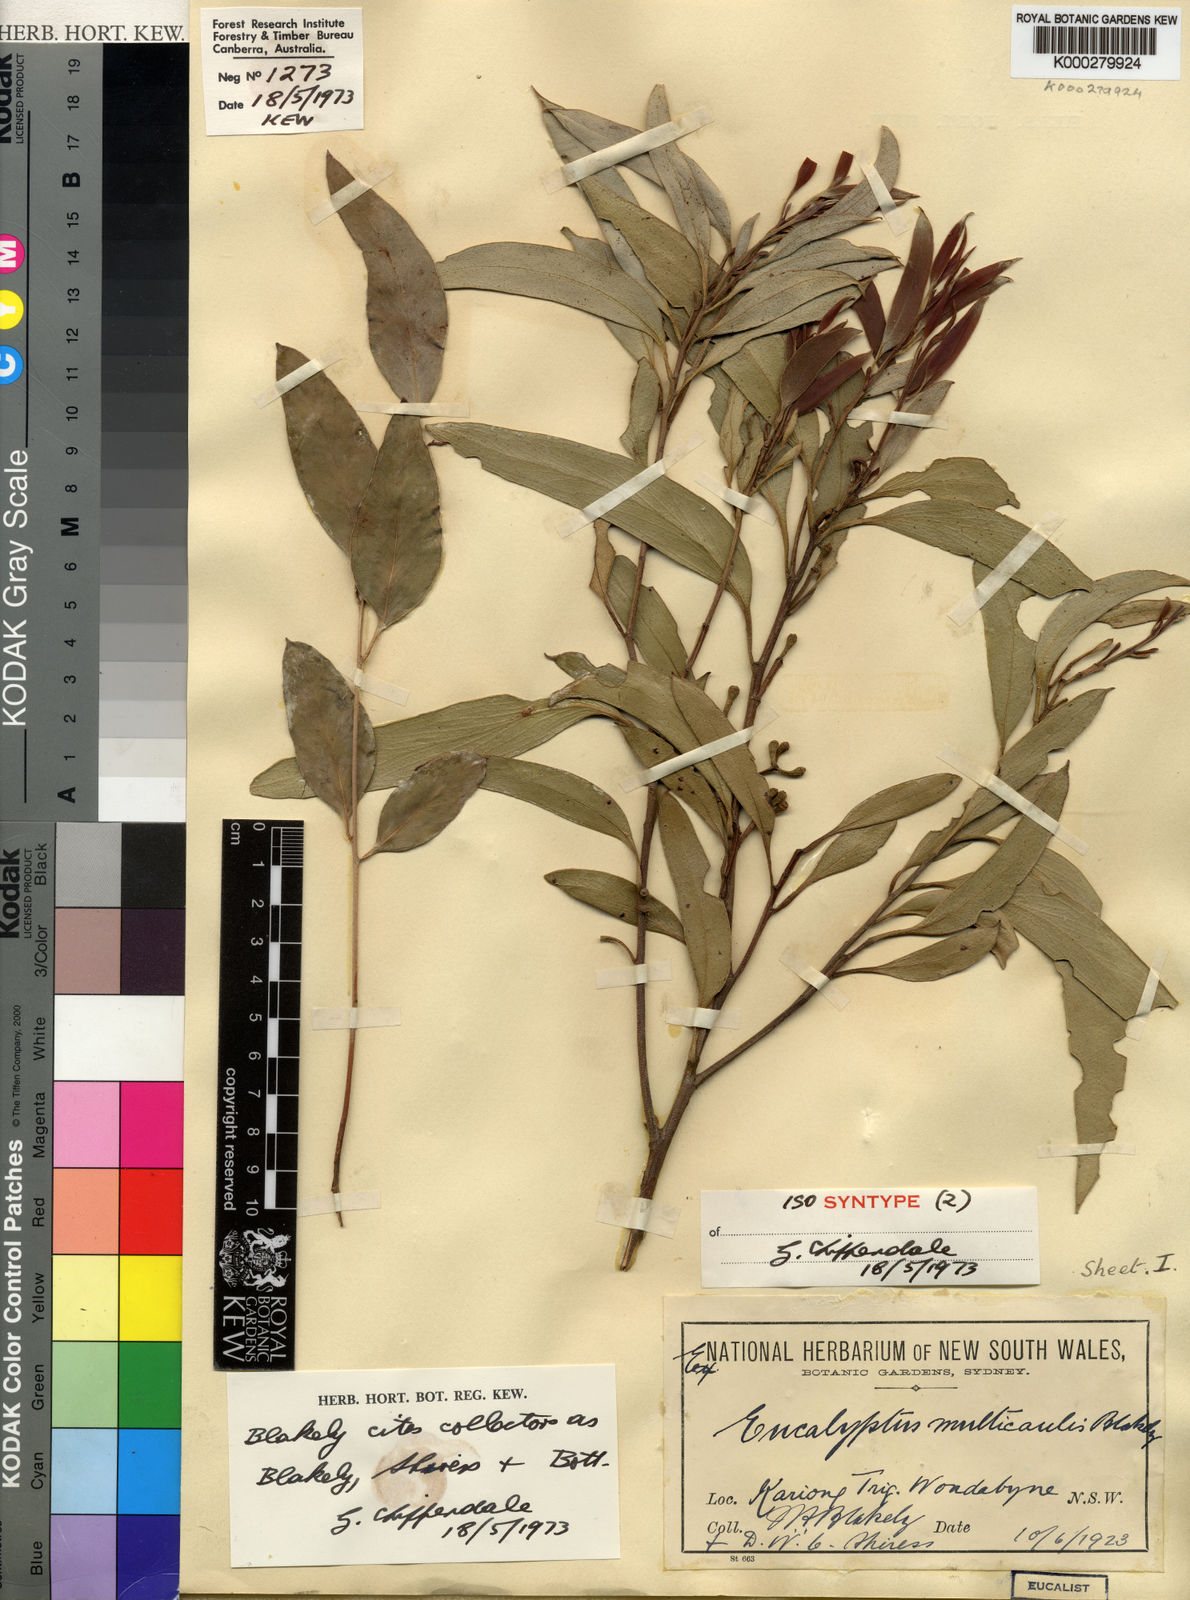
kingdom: Plantae
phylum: Tracheophyta
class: Magnoliopsida
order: Myrtales
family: Myrtaceae
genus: Eucalyptus
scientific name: Eucalyptus multicaulis
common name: Whipstick mallee-ash
